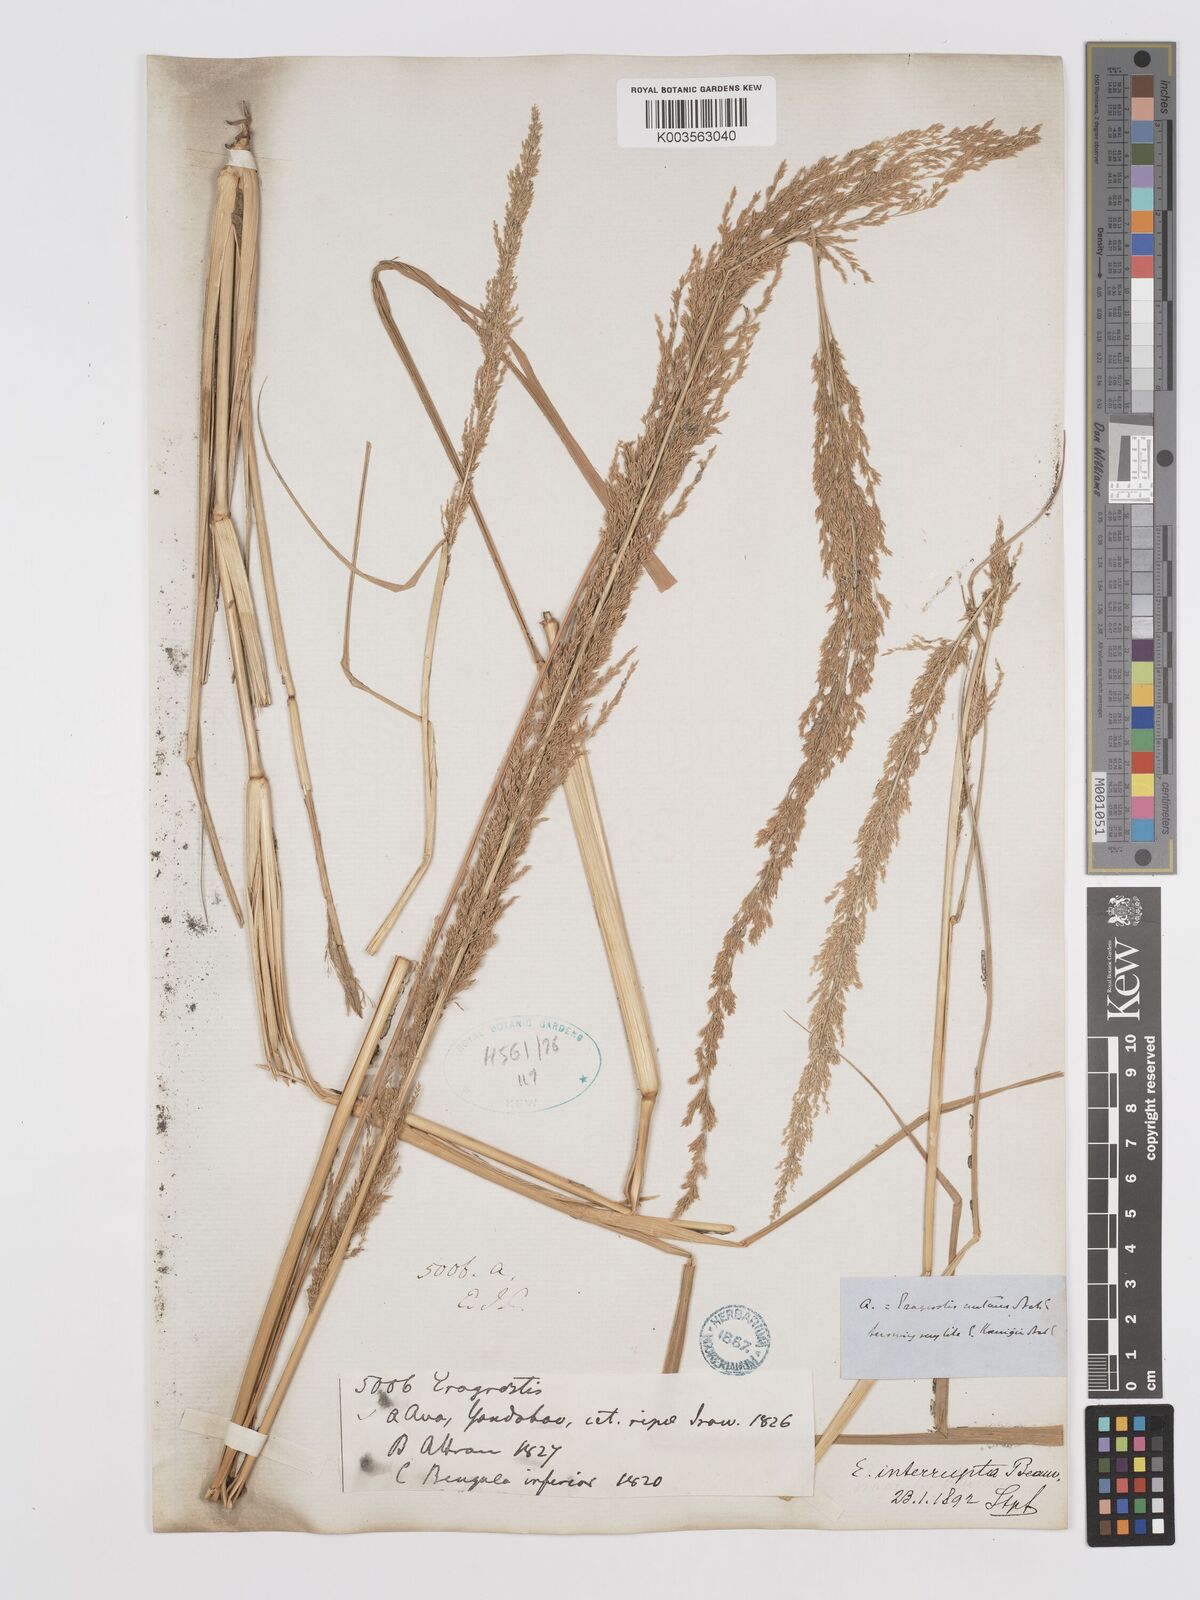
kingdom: Plantae
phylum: Tracheophyta
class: Liliopsida
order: Poales
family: Poaceae
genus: Eragrostis
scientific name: Eragrostis japonica
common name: Pond lovegrass
